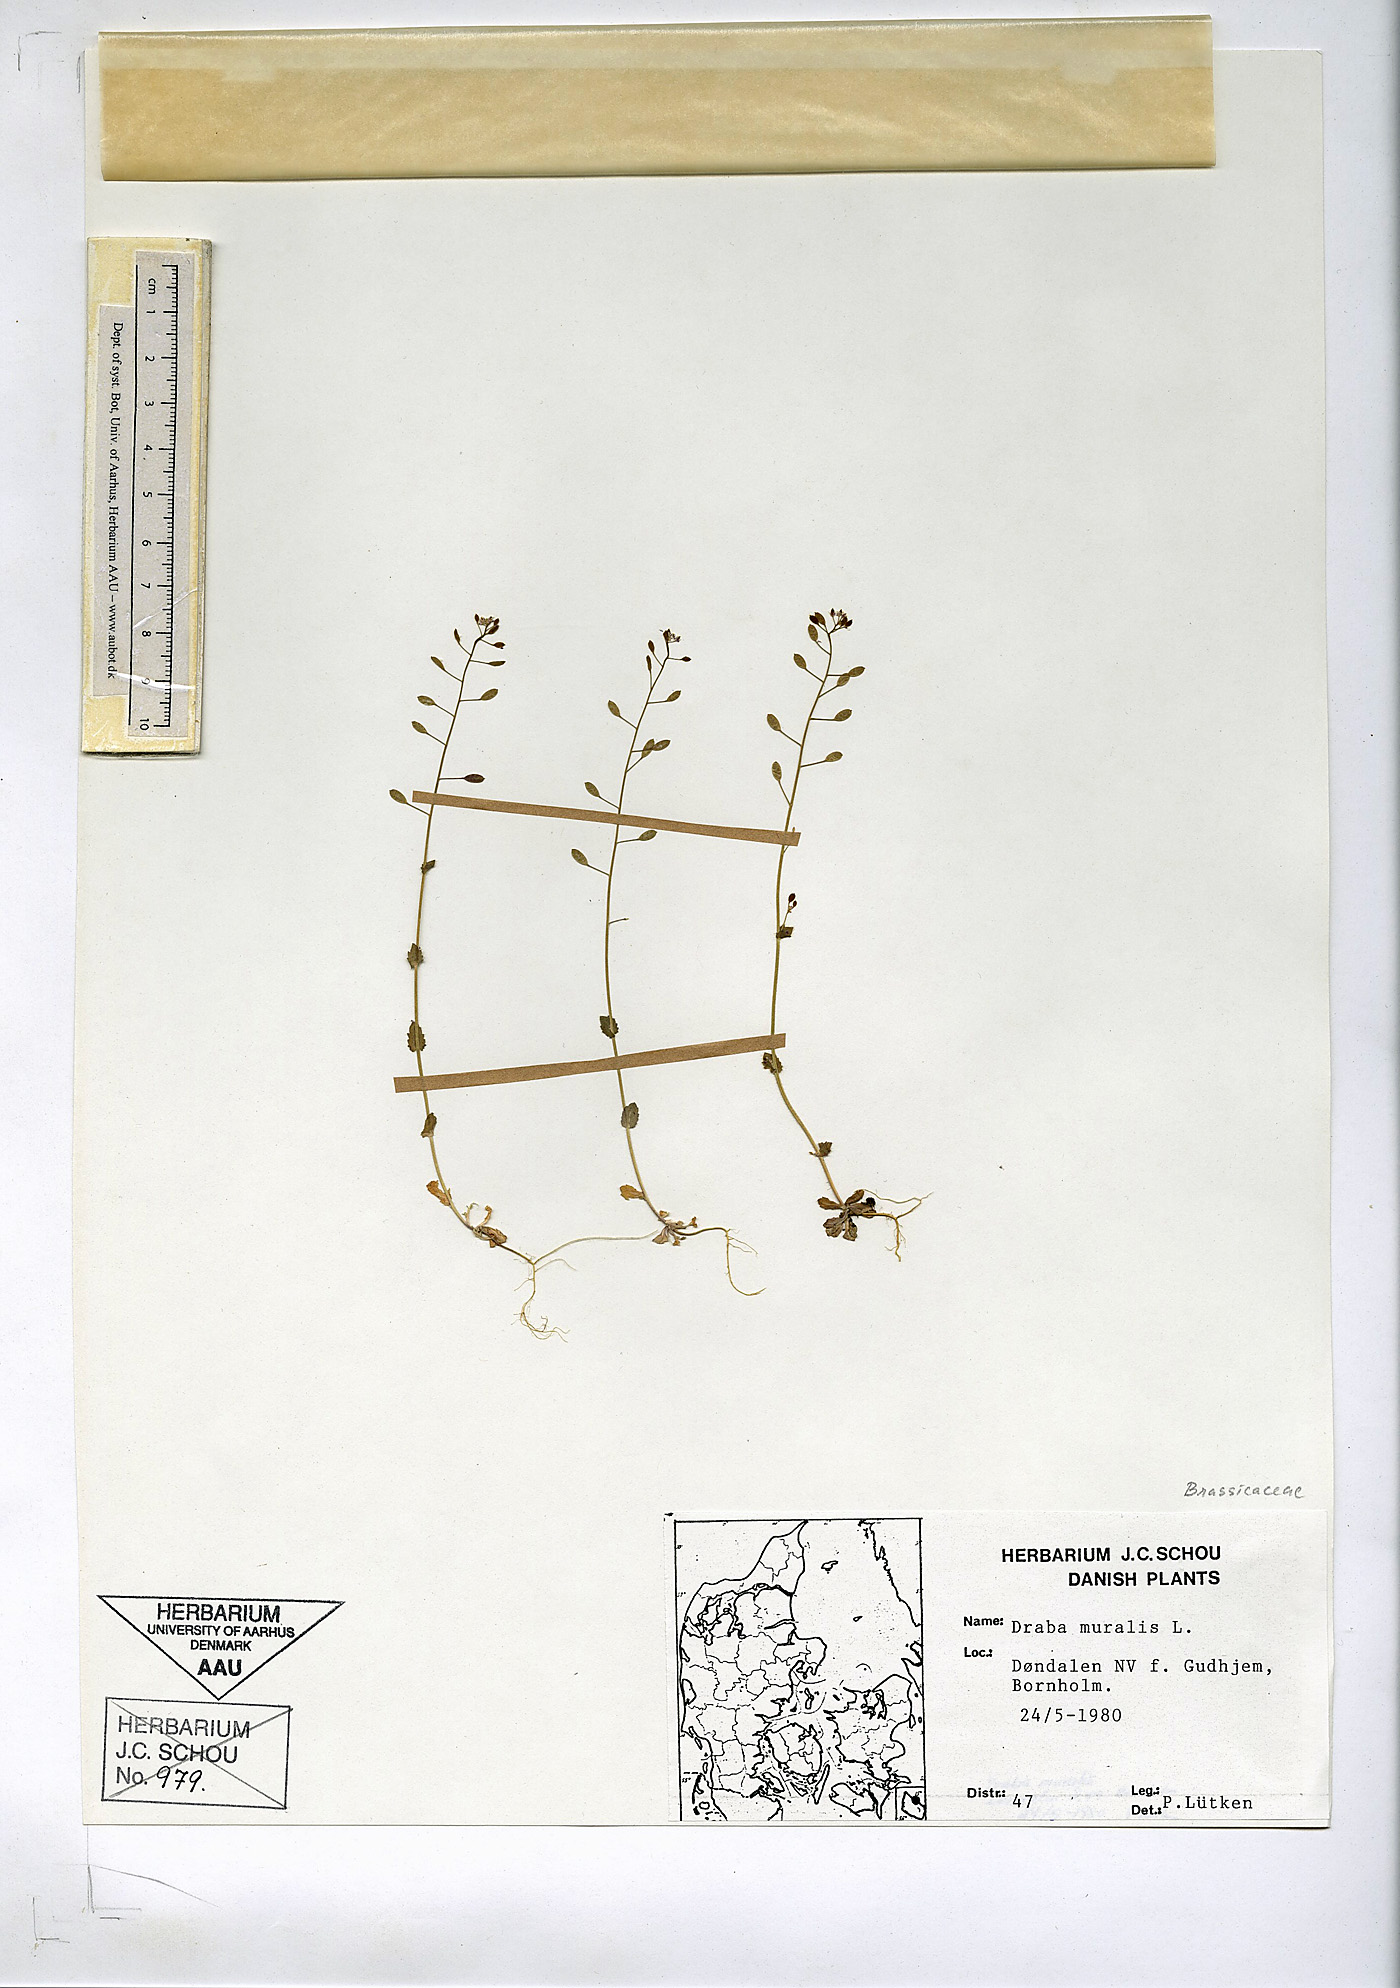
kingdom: Plantae
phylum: Tracheophyta
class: Magnoliopsida
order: Brassicales
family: Brassicaceae
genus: Drabella
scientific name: Drabella muralis
